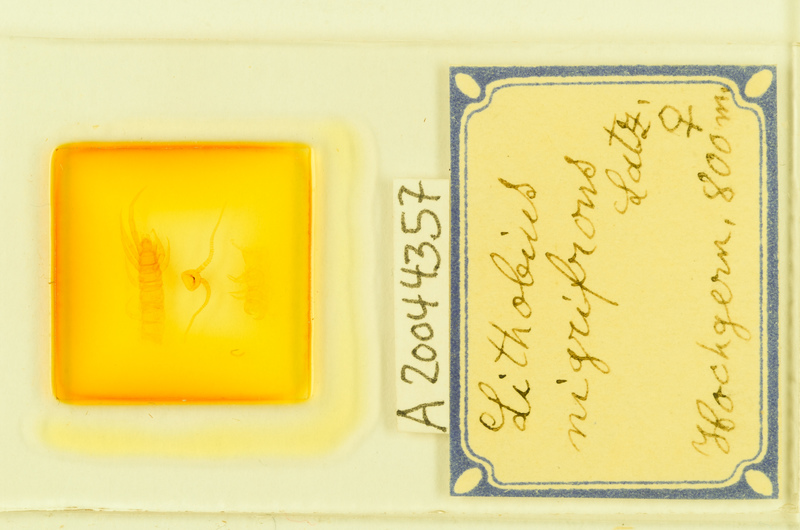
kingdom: Animalia
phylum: Arthropoda
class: Chilopoda
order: Geophilomorpha
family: Geophilidae
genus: Eurytion
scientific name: Eurytion tenebrosus
